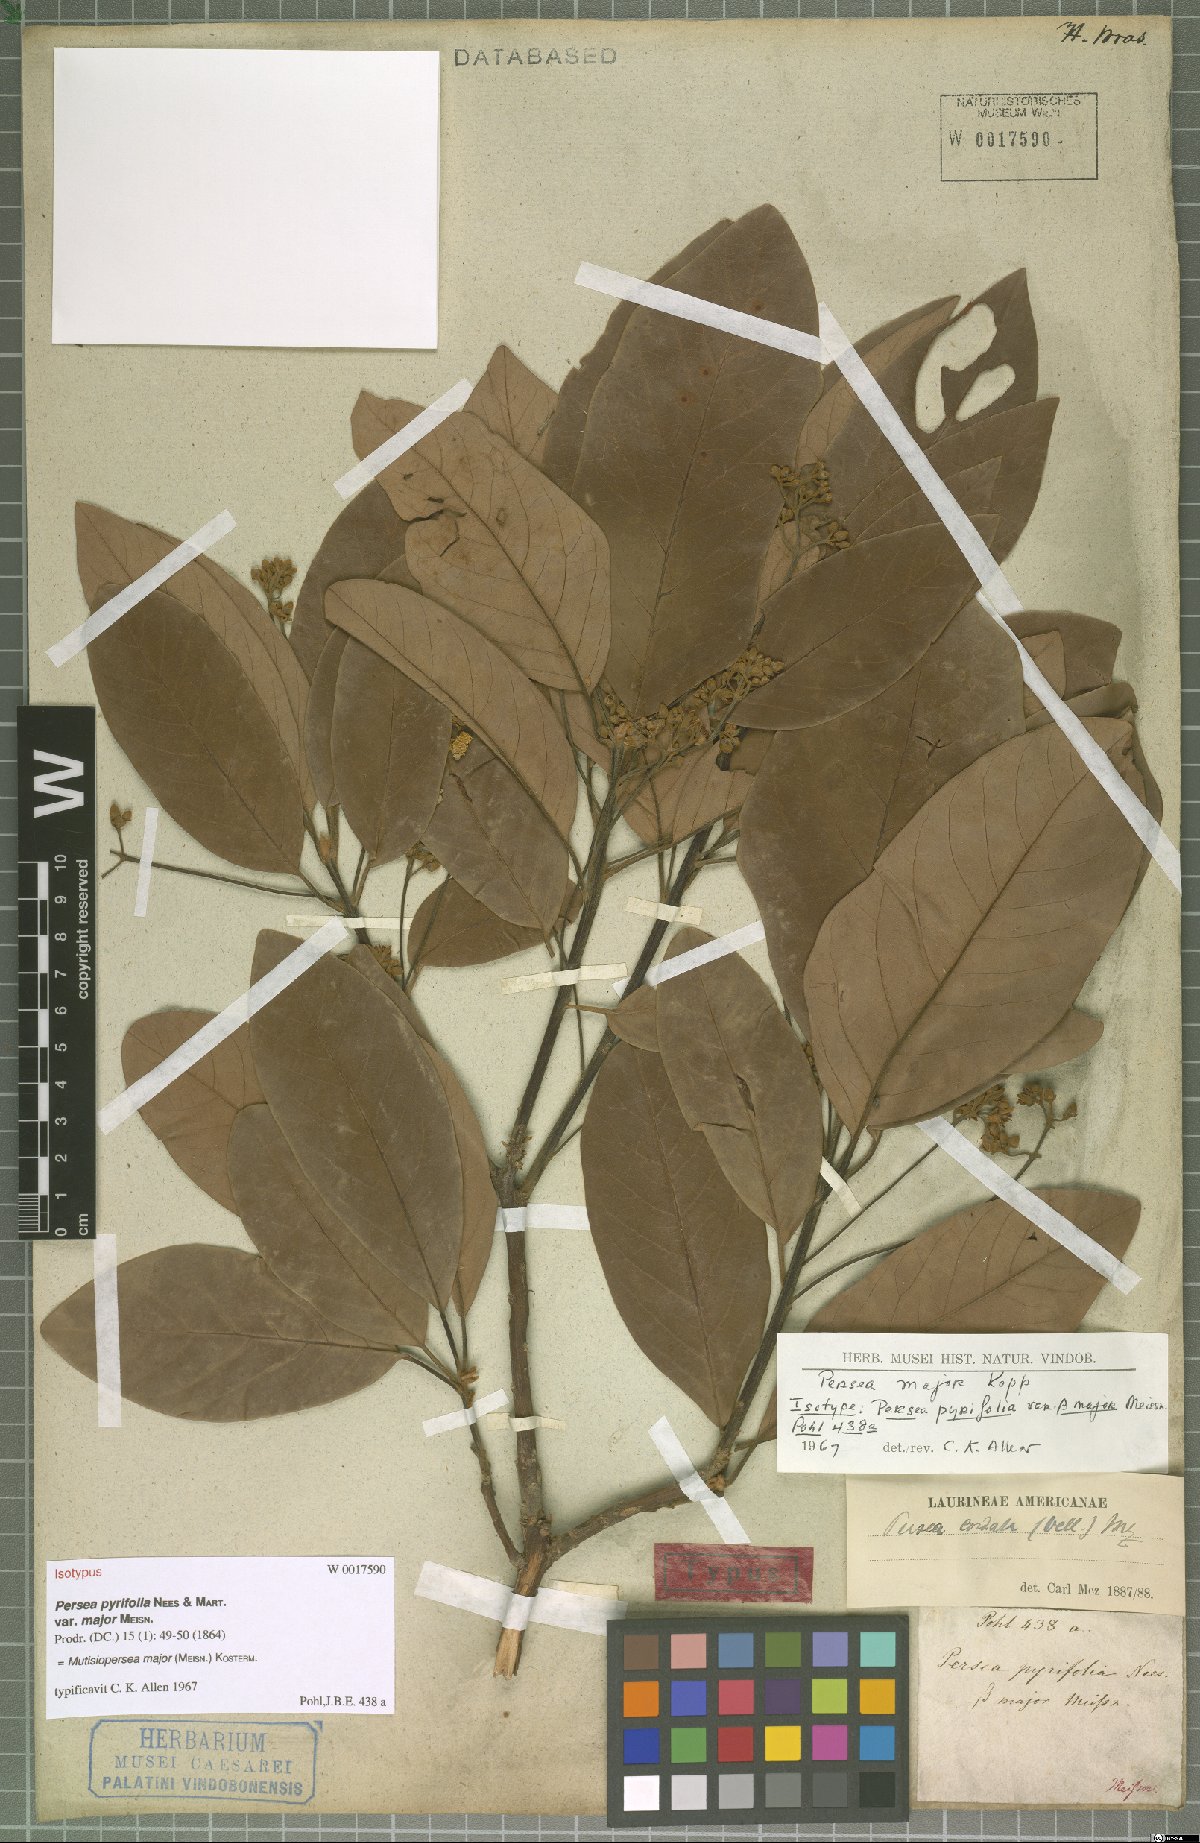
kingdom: Plantae
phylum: Tracheophyta
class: Magnoliopsida
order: Laurales
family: Lauraceae
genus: Persea
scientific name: Persea major
